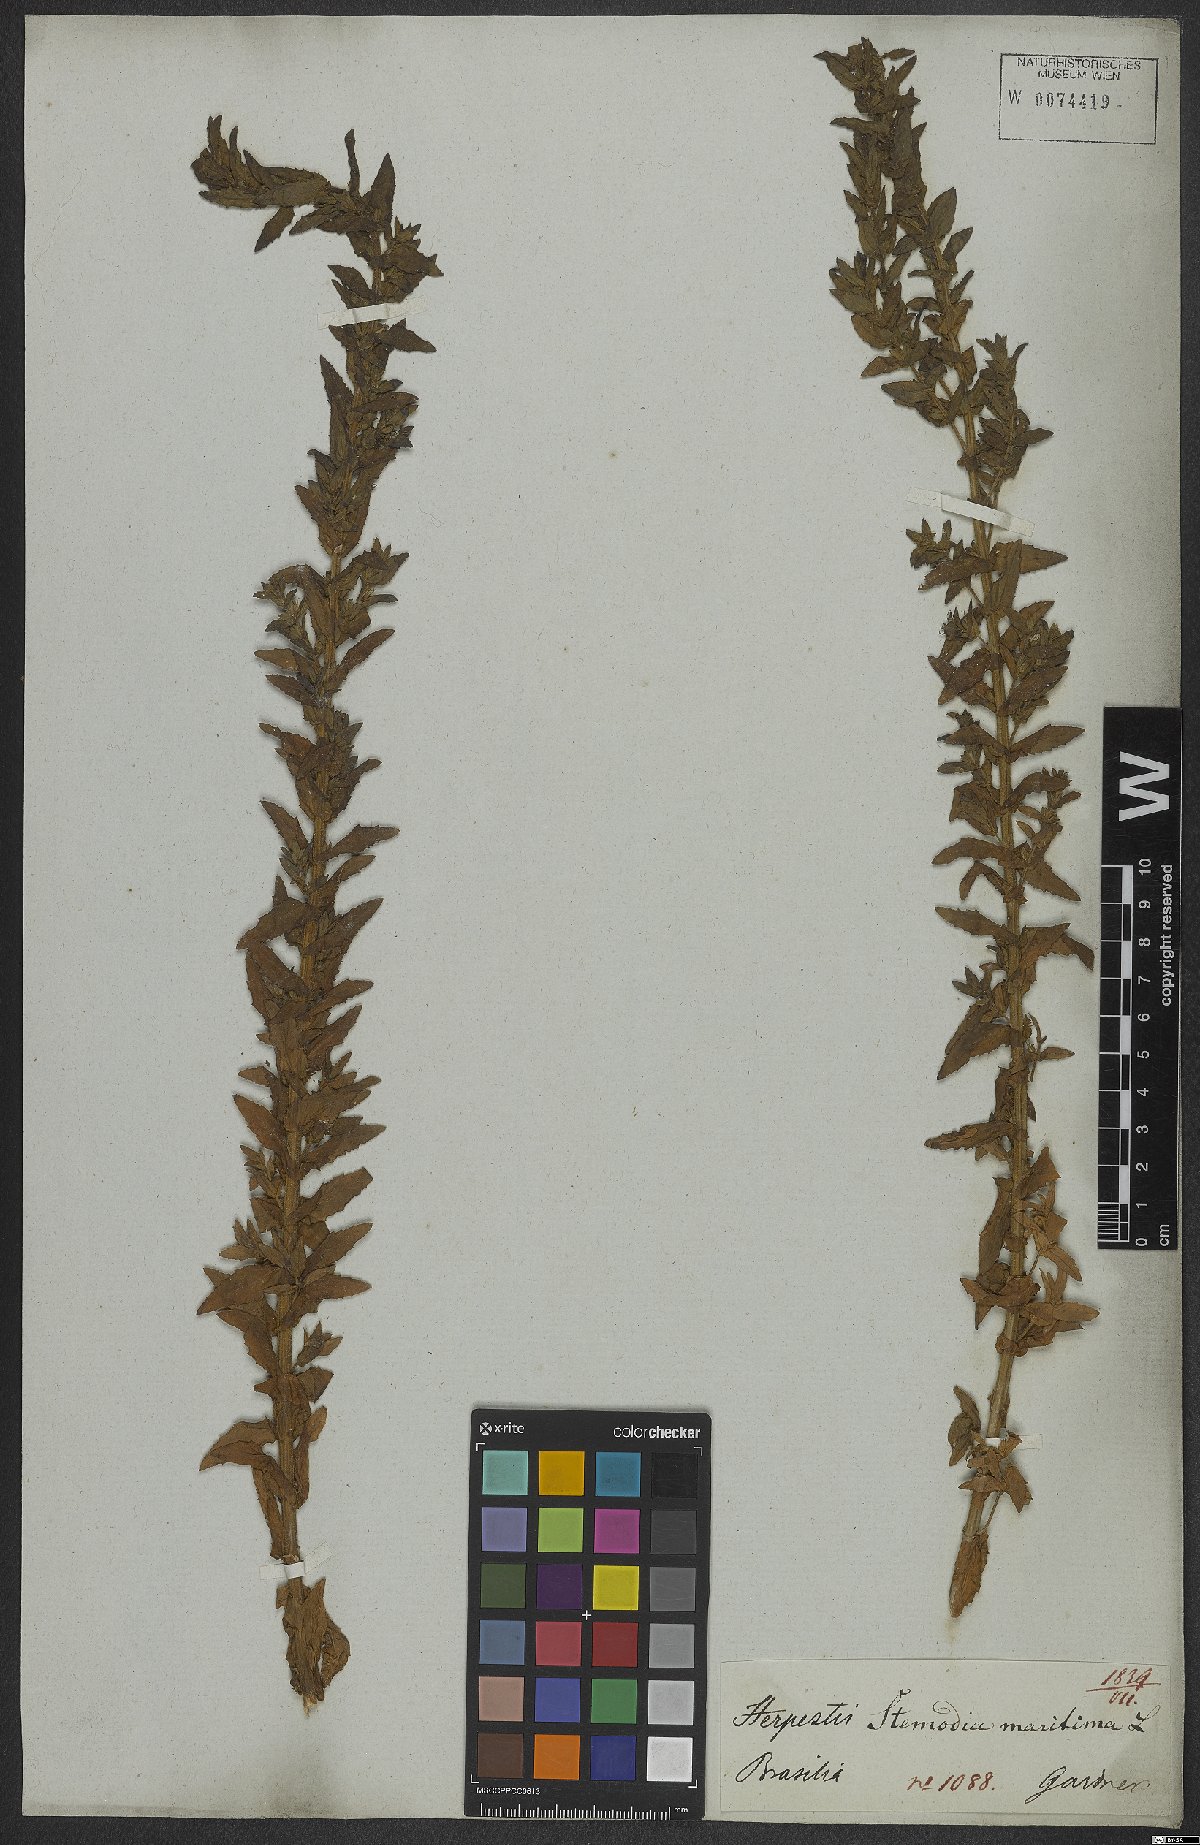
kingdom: Plantae
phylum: Tracheophyta
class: Magnoliopsida
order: Lamiales
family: Plantaginaceae
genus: Stemodia
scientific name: Stemodia maritima
